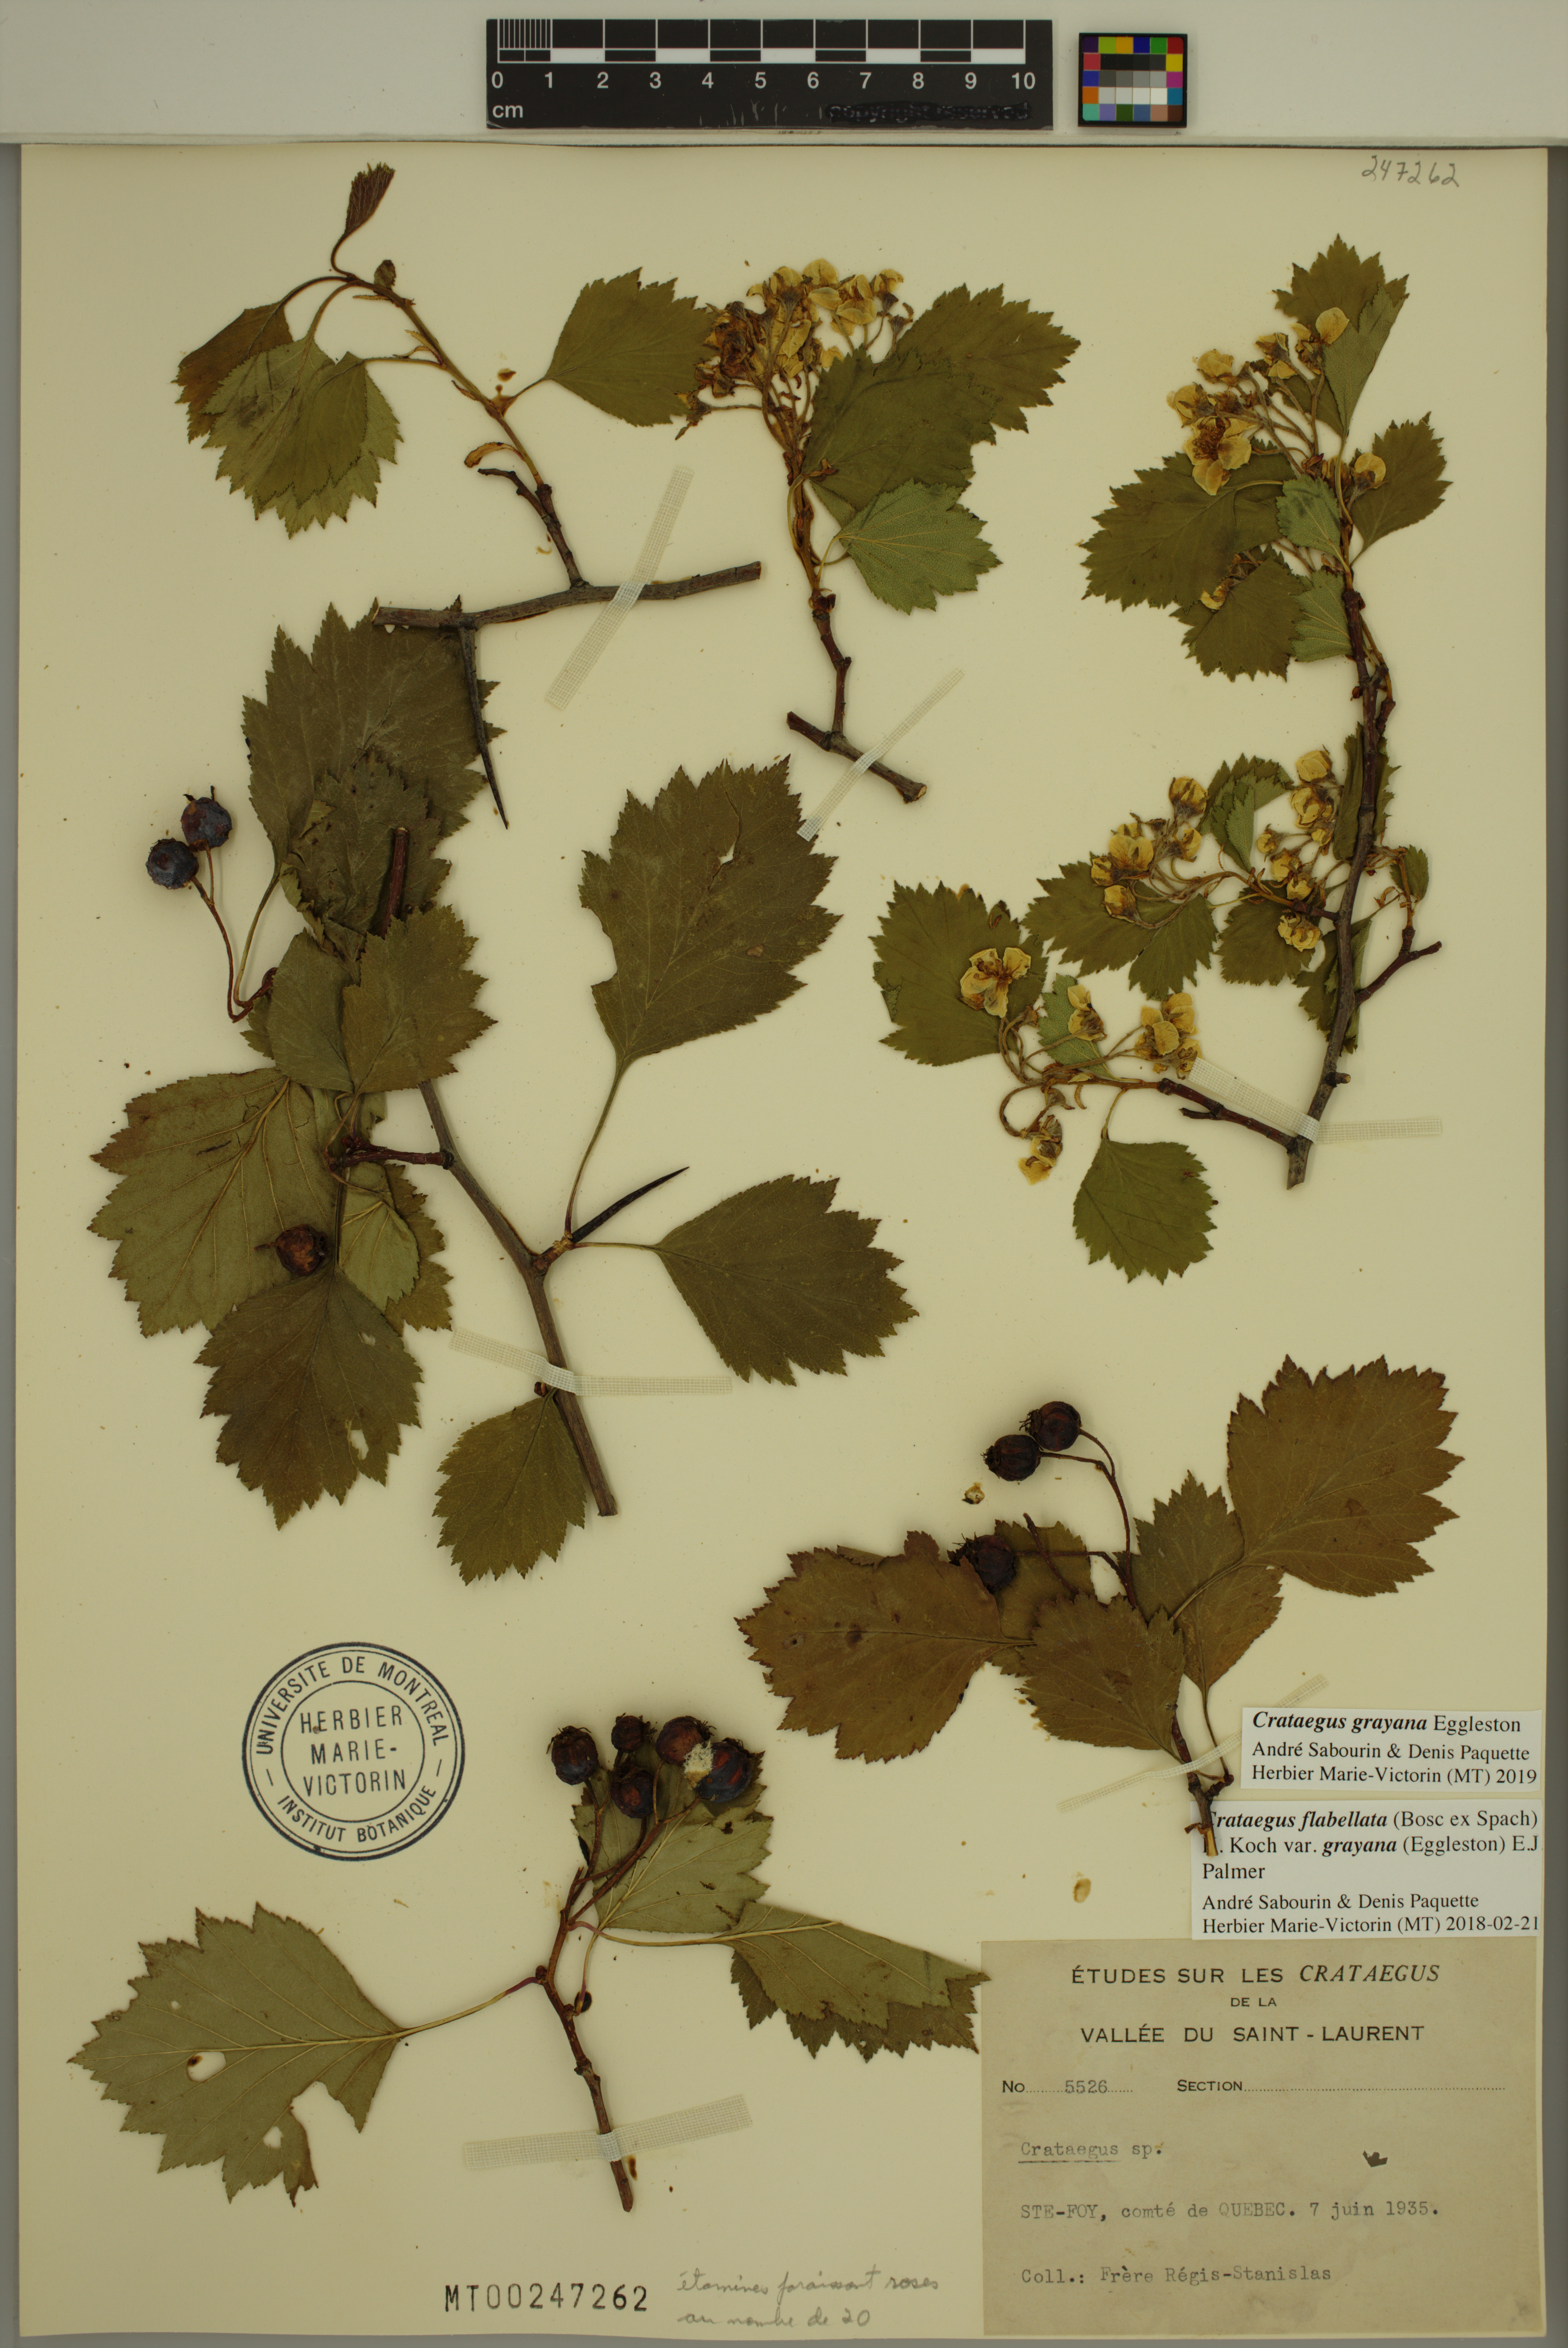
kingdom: Plantae
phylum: Tracheophyta
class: Magnoliopsida
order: Rosales
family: Rosaceae
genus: Crataegus
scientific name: Crataegus schuettei
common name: Schuette's hawthorn
